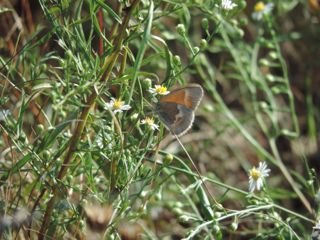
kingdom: Animalia
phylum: Arthropoda
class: Insecta
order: Lepidoptera
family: Nymphalidae
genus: Coenonympha
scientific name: Coenonympha tullia
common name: Large Heath
